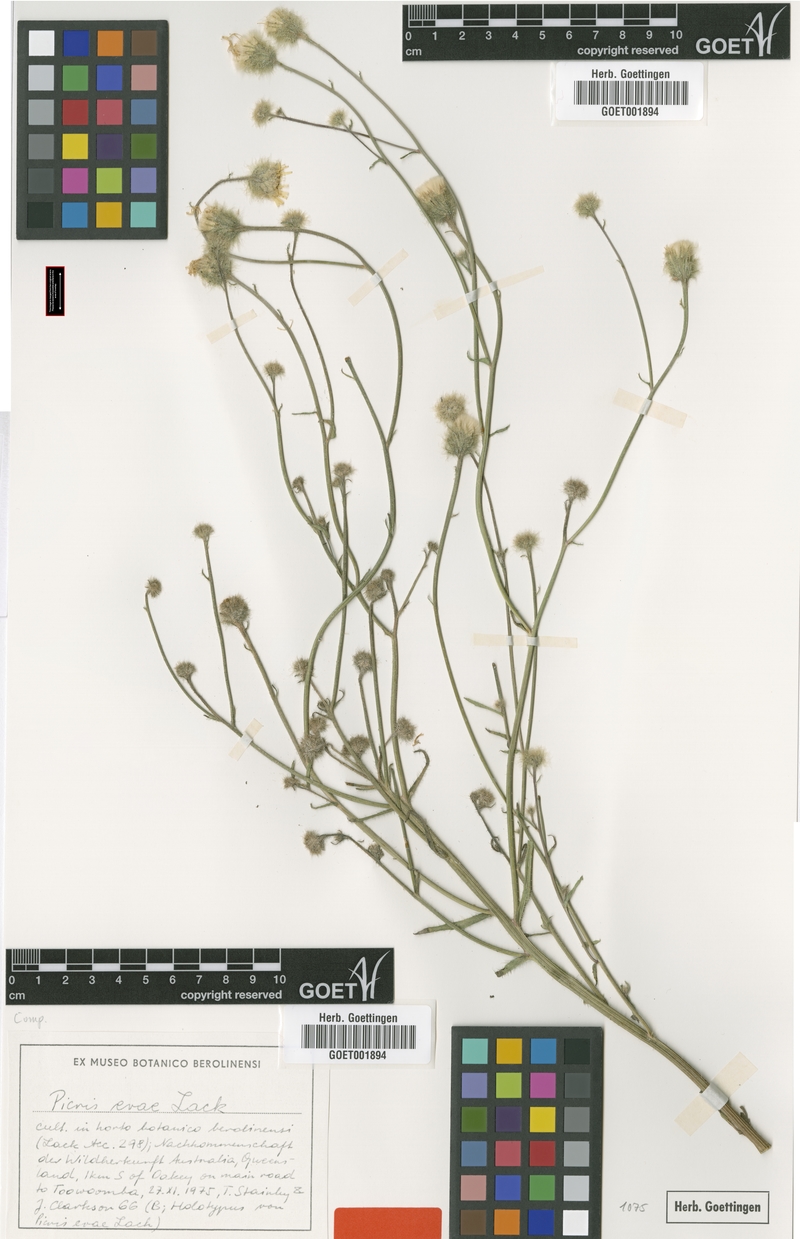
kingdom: Plantae
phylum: Tracheophyta
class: Magnoliopsida
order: Asterales
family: Asteraceae
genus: Picris
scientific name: Picris evae
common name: Hawkweed
